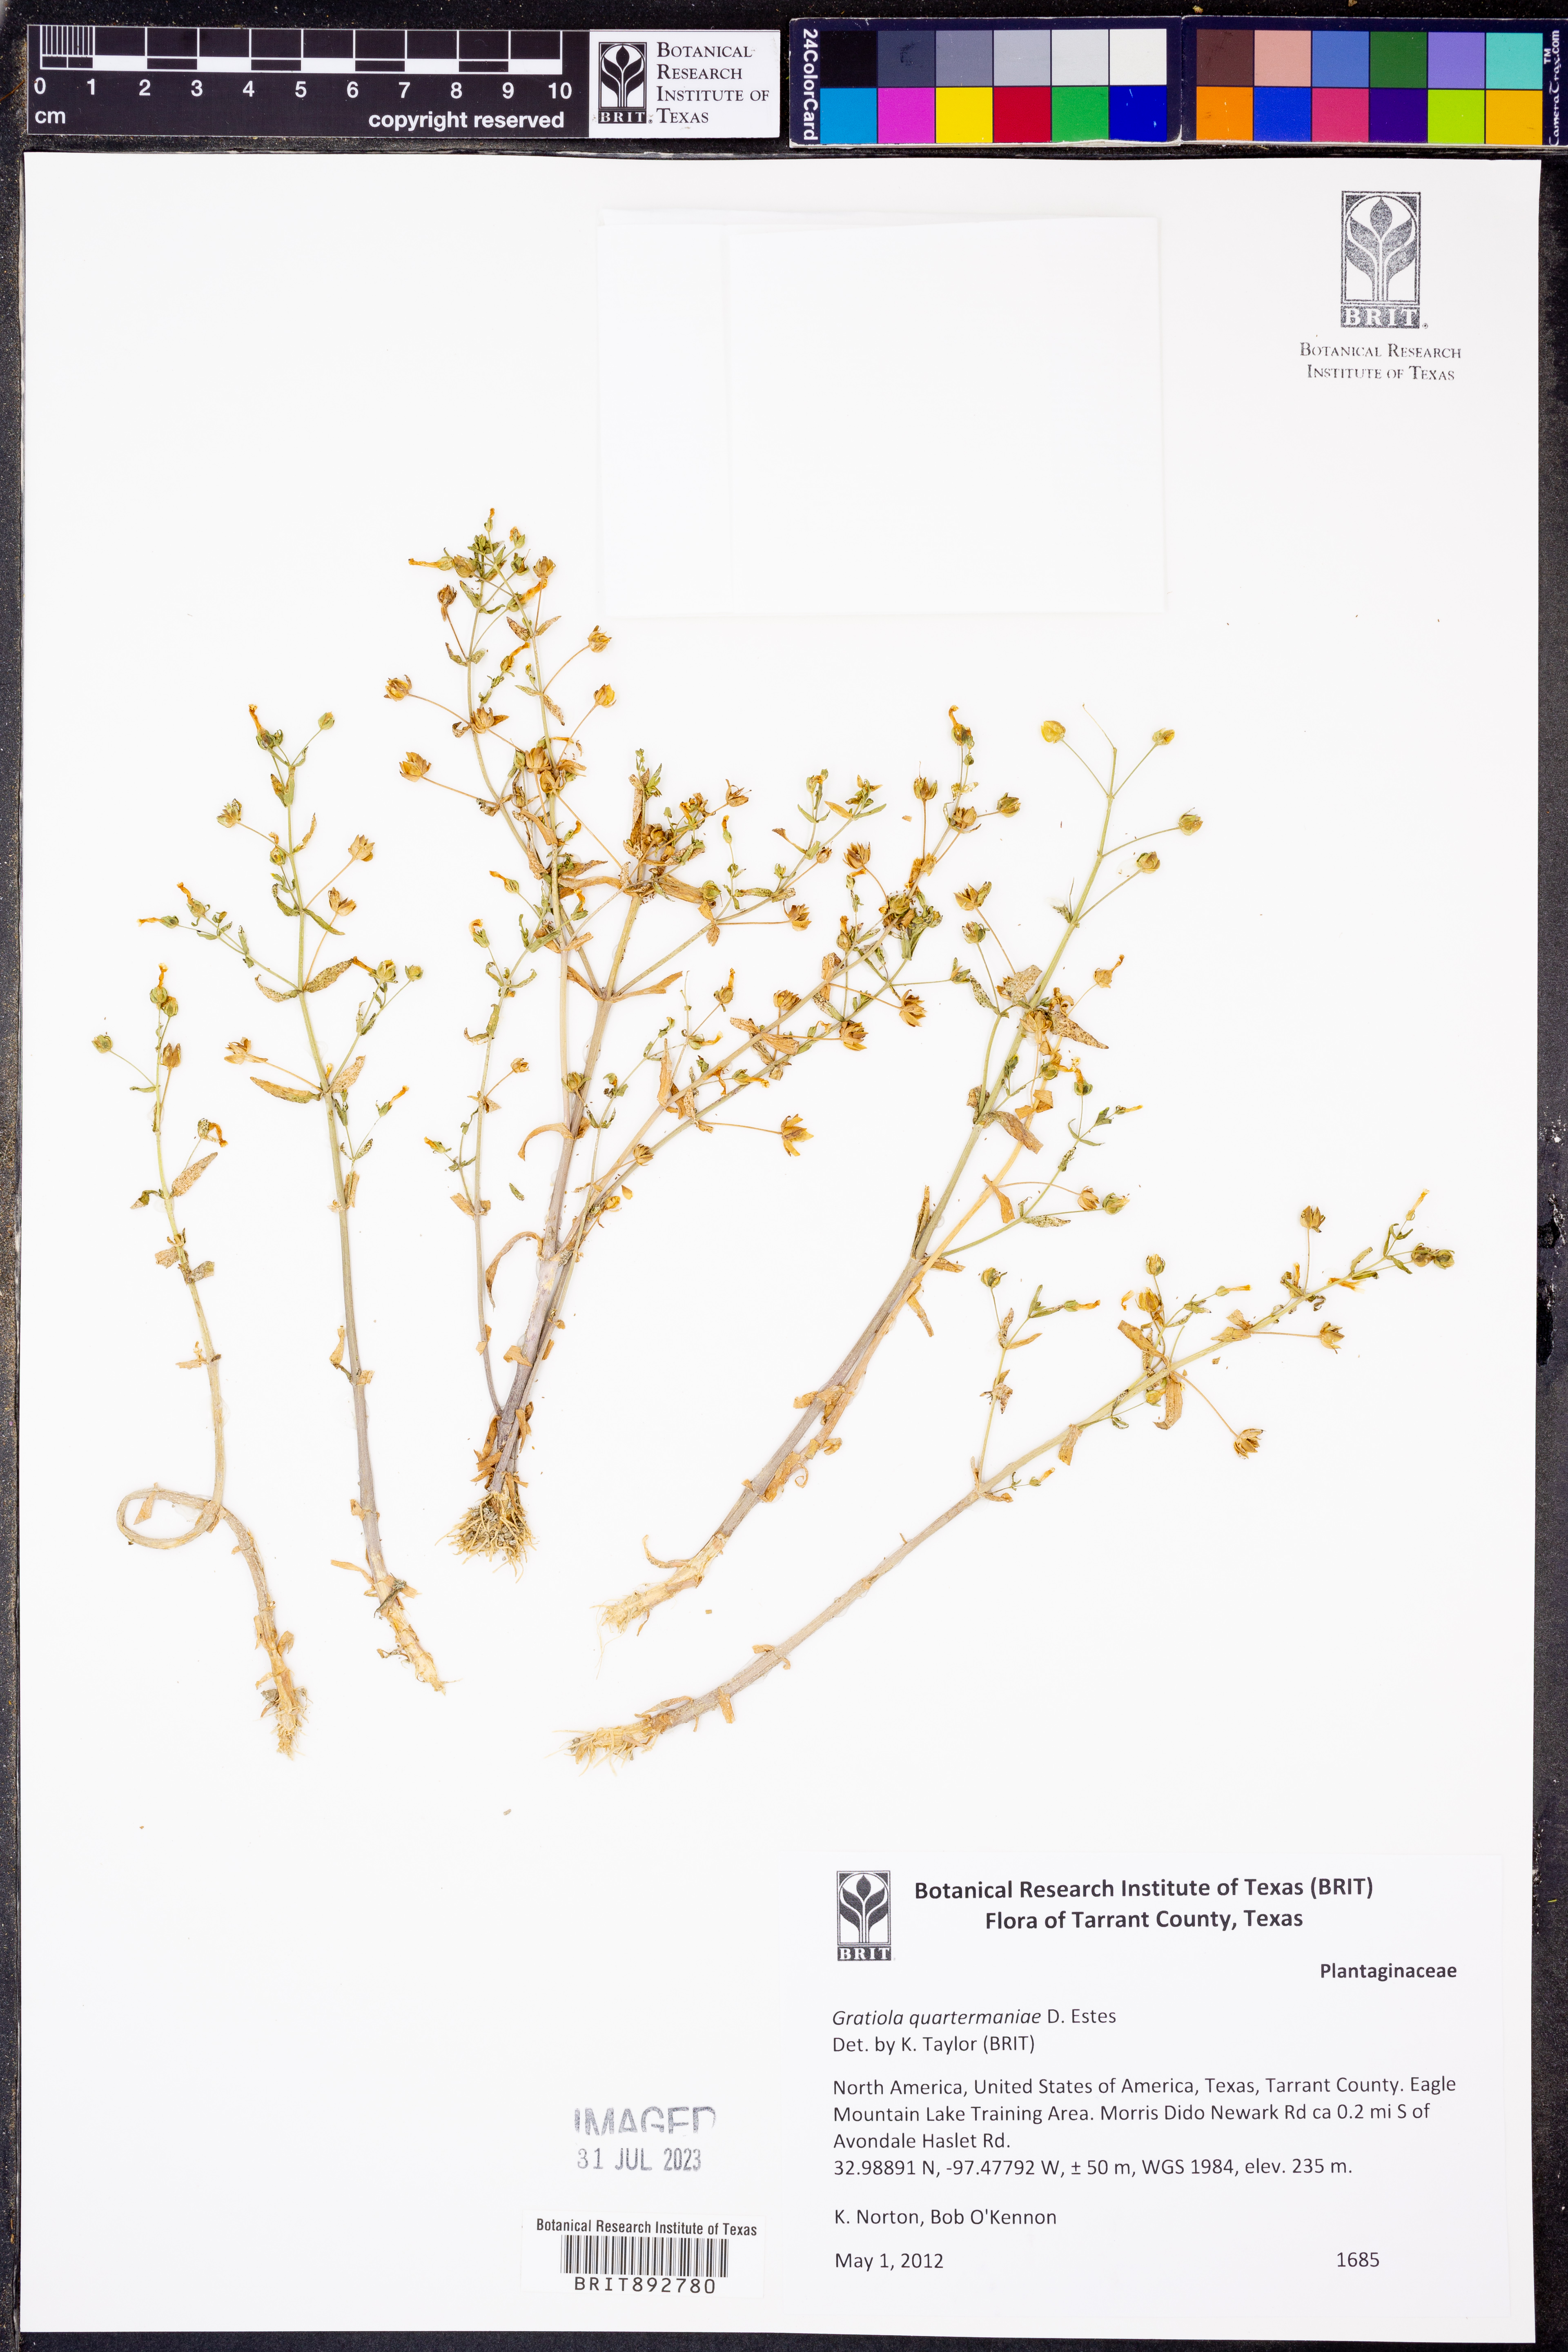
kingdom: Plantae
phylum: Tracheophyta
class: Magnoliopsida
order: Lamiales
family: Plantaginaceae
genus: Gratiola
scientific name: Gratiola quartermaniae
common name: Quarterman's hedge-hyssop
